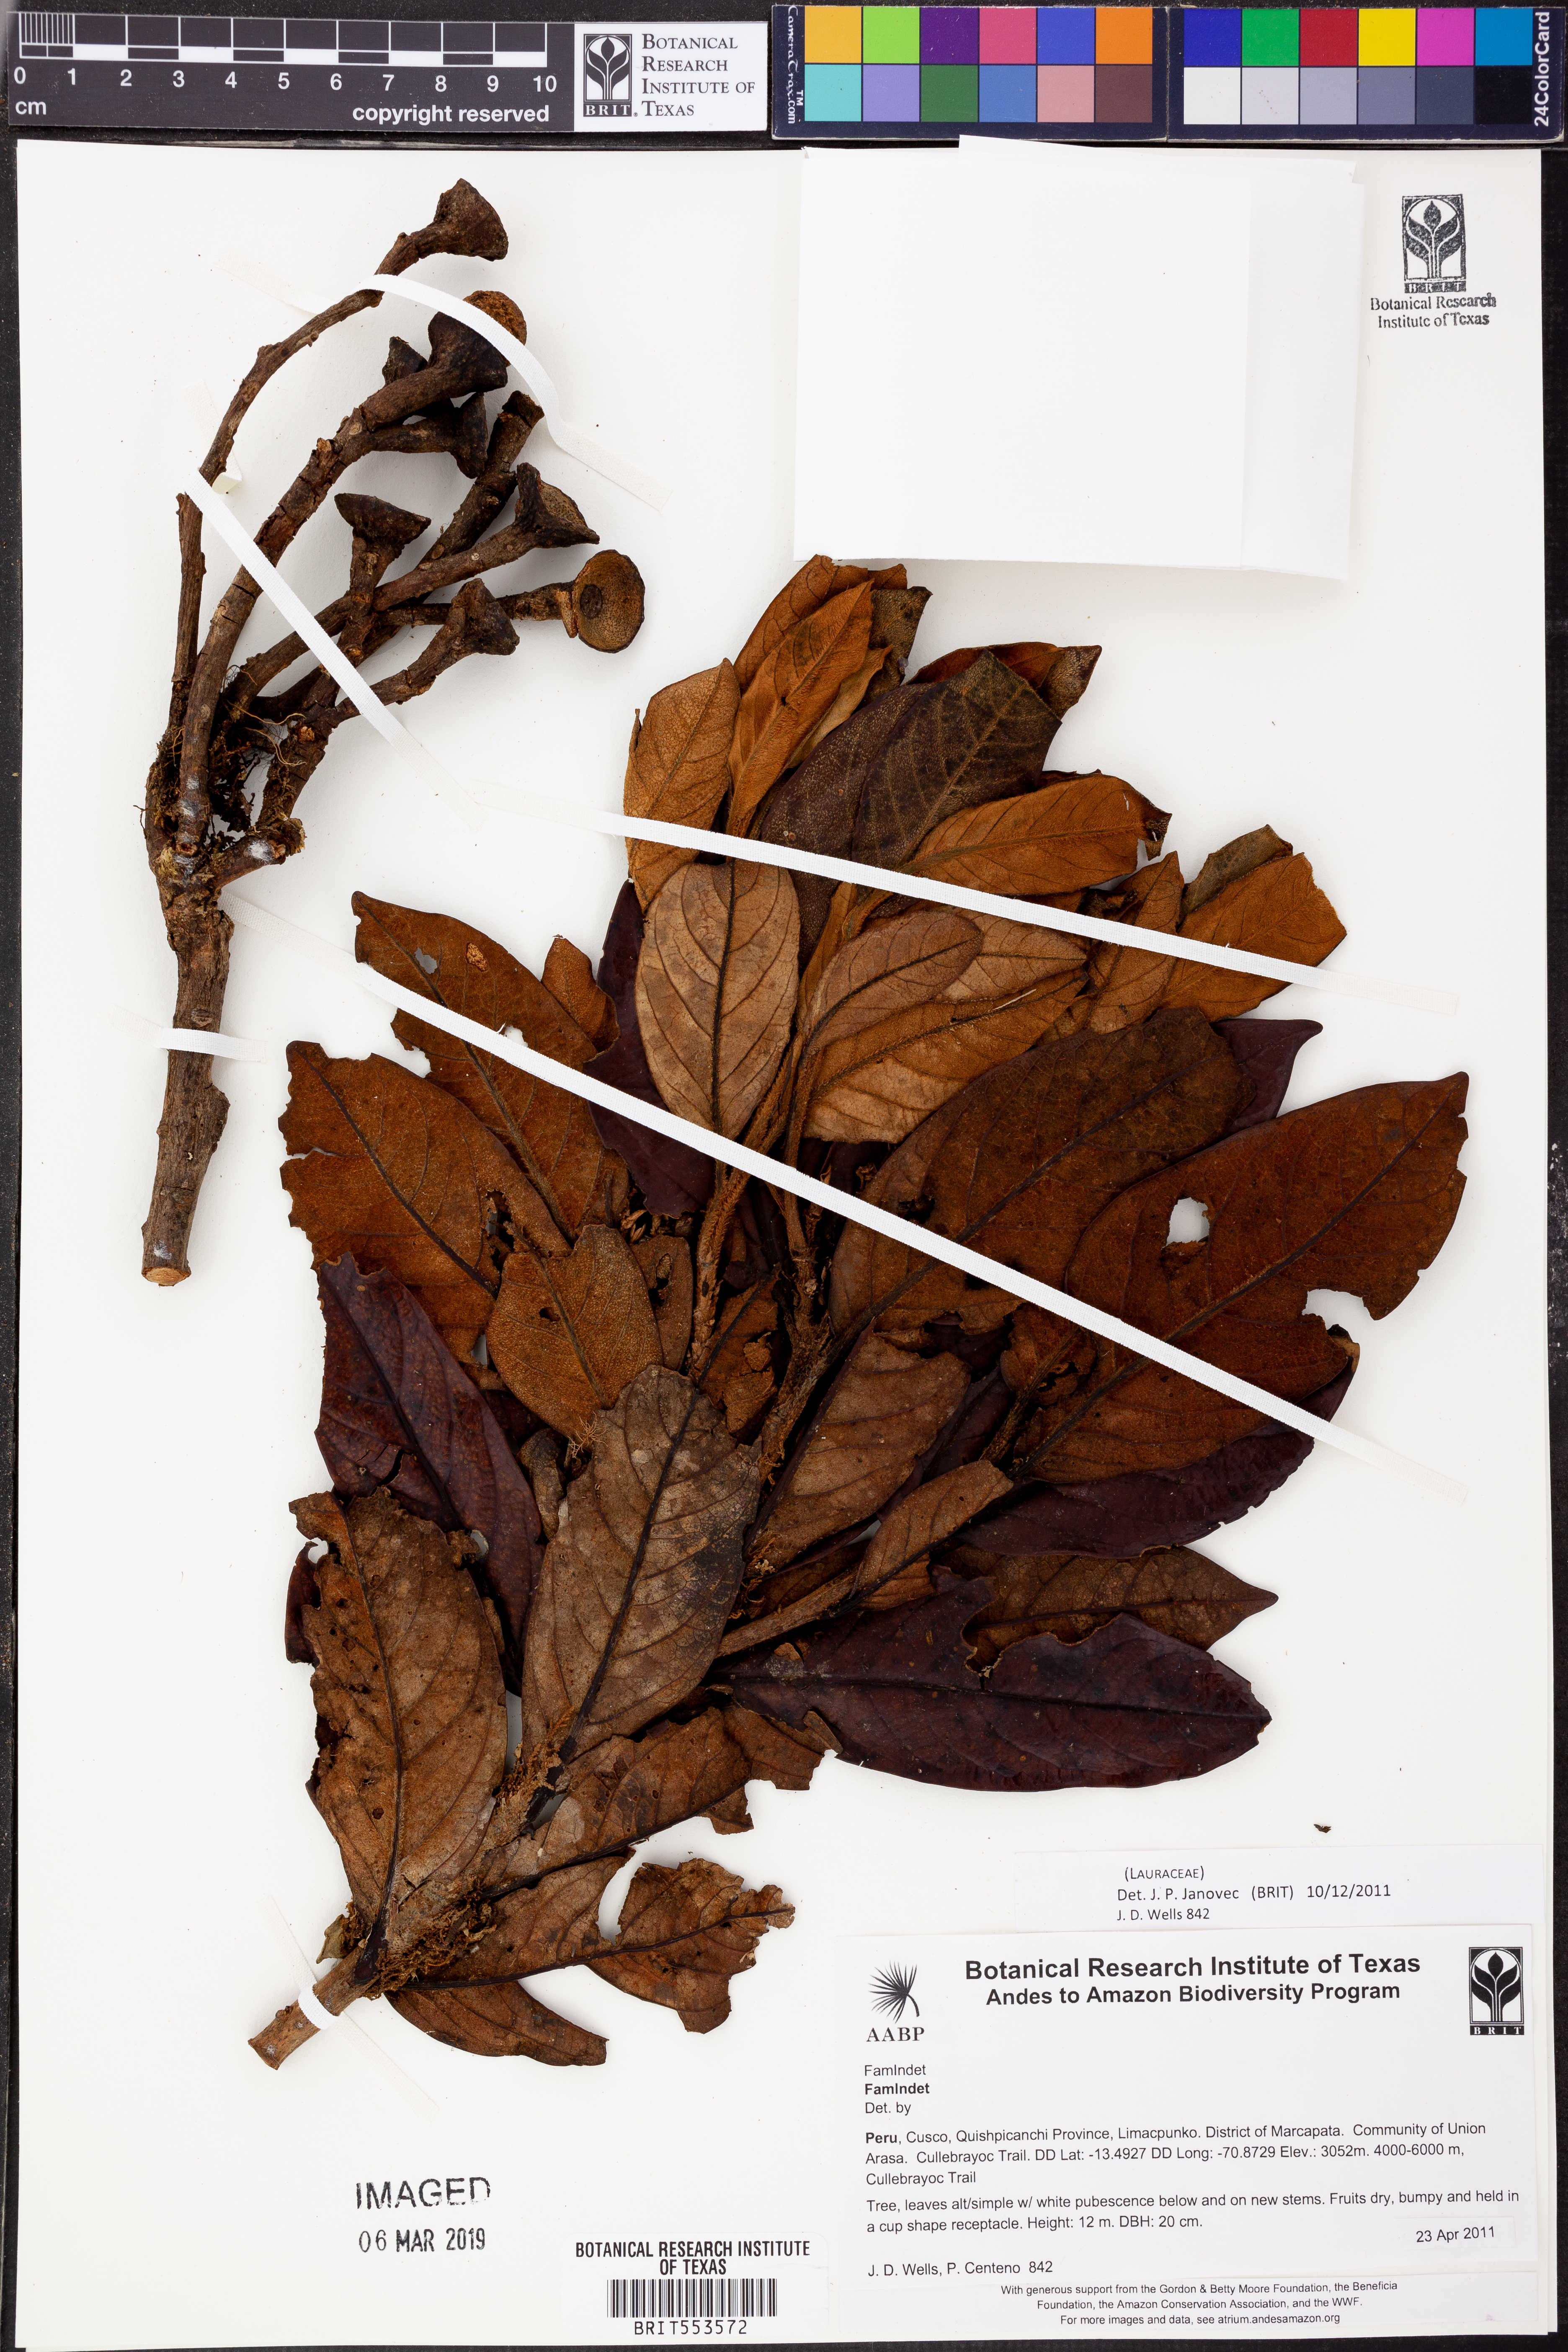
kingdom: Plantae
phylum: Tracheophyta
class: Magnoliopsida
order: Laurales
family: Lauraceae
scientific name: Lauraceae
